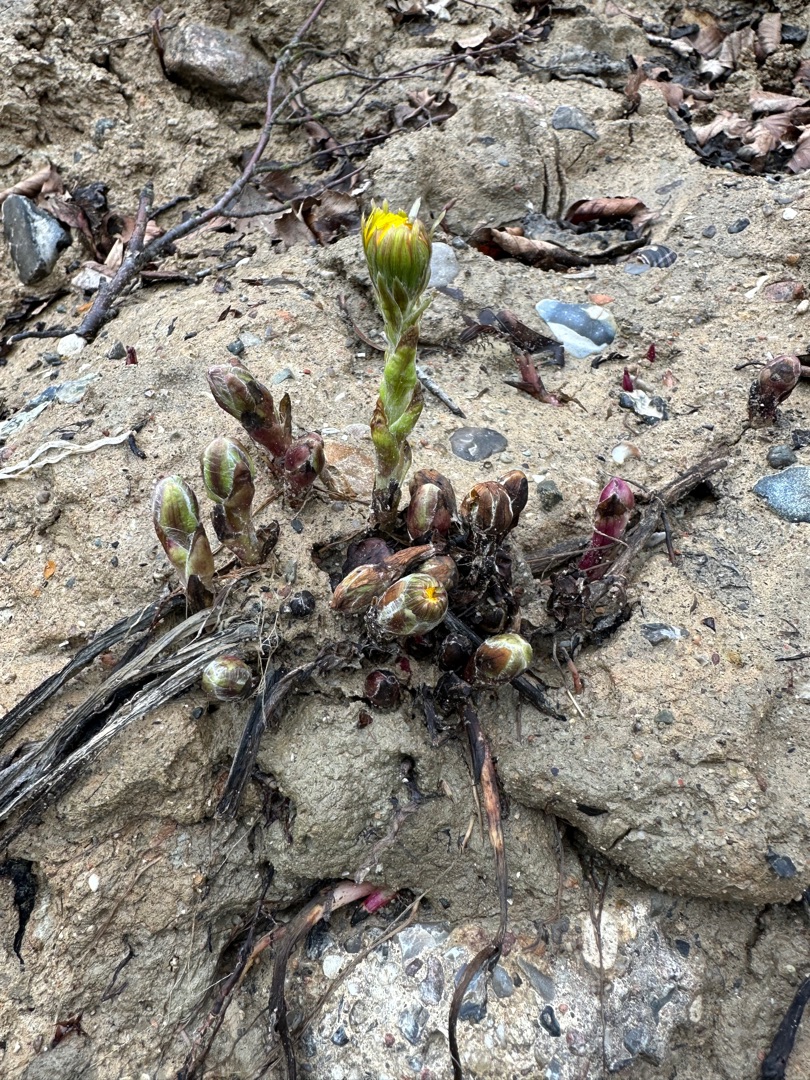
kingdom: Plantae
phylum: Tracheophyta
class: Magnoliopsida
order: Asterales
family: Asteraceae
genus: Tussilago
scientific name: Tussilago farfara
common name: Følfod
